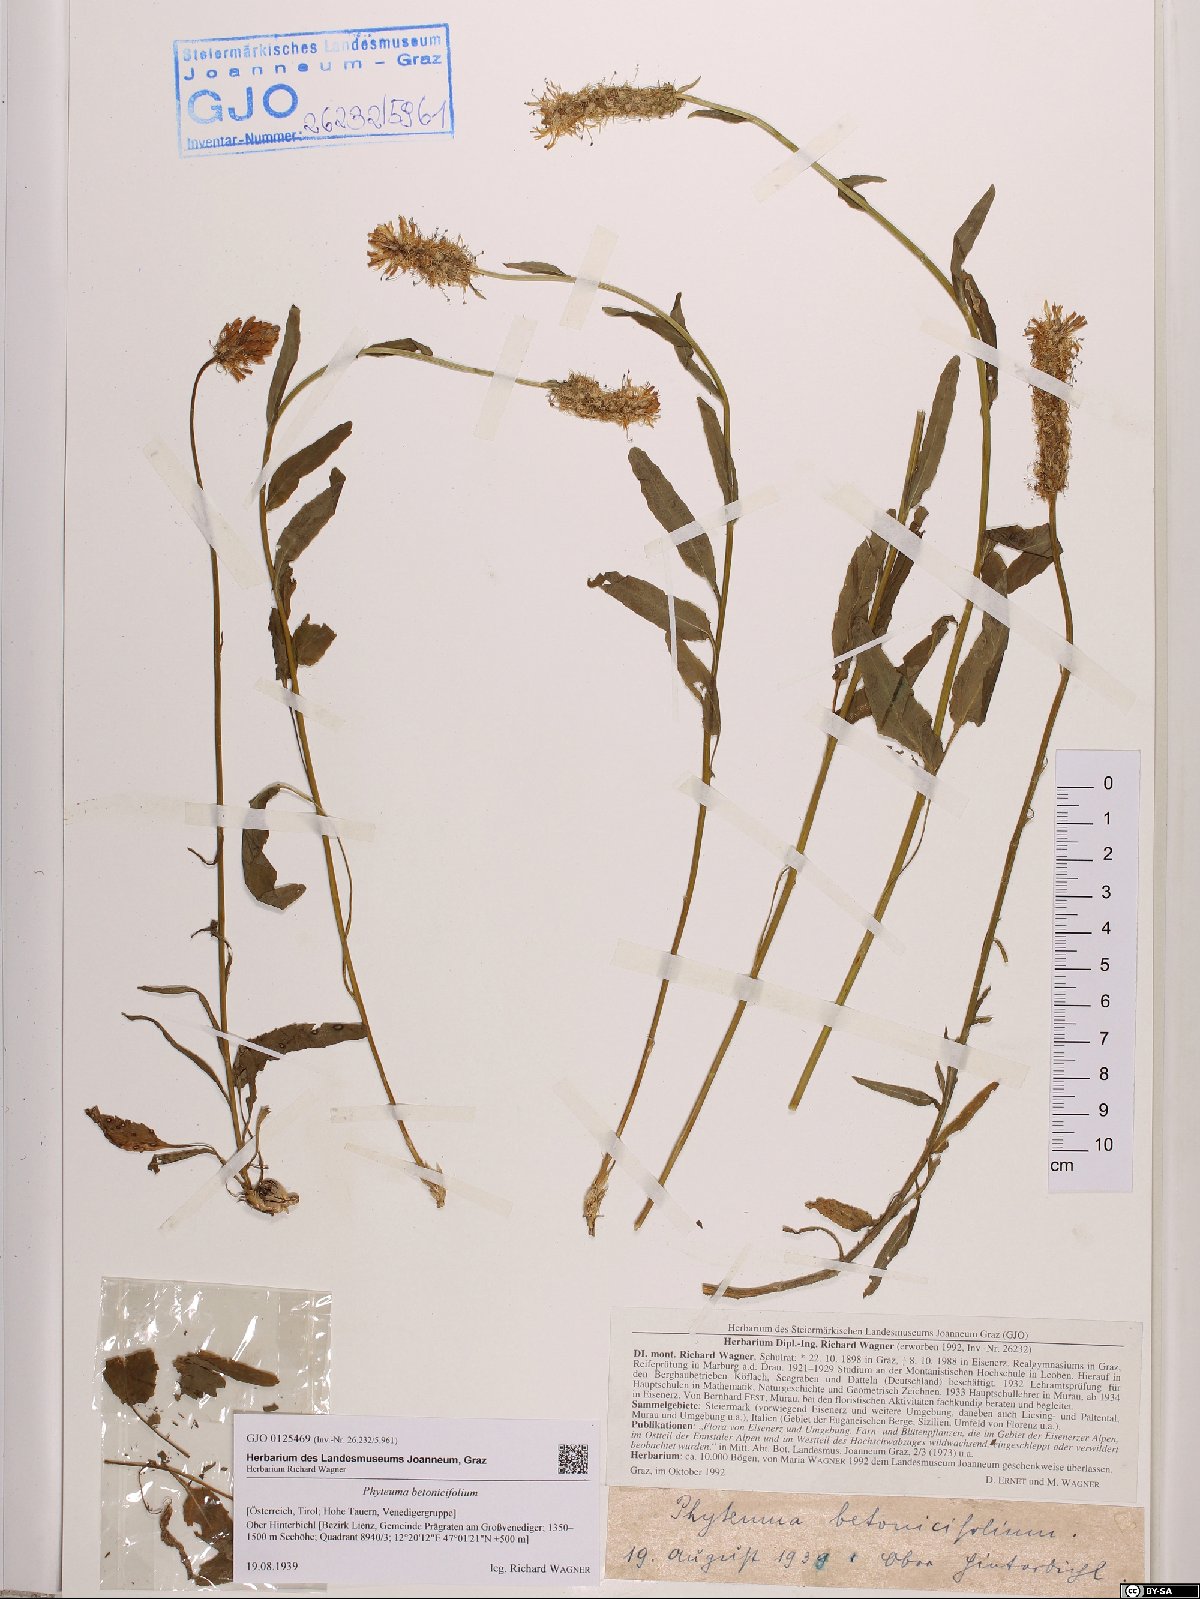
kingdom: Plantae
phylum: Tracheophyta
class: Magnoliopsida
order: Asterales
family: Campanulaceae
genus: Phyteuma
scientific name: Phyteuma betonicifolium
